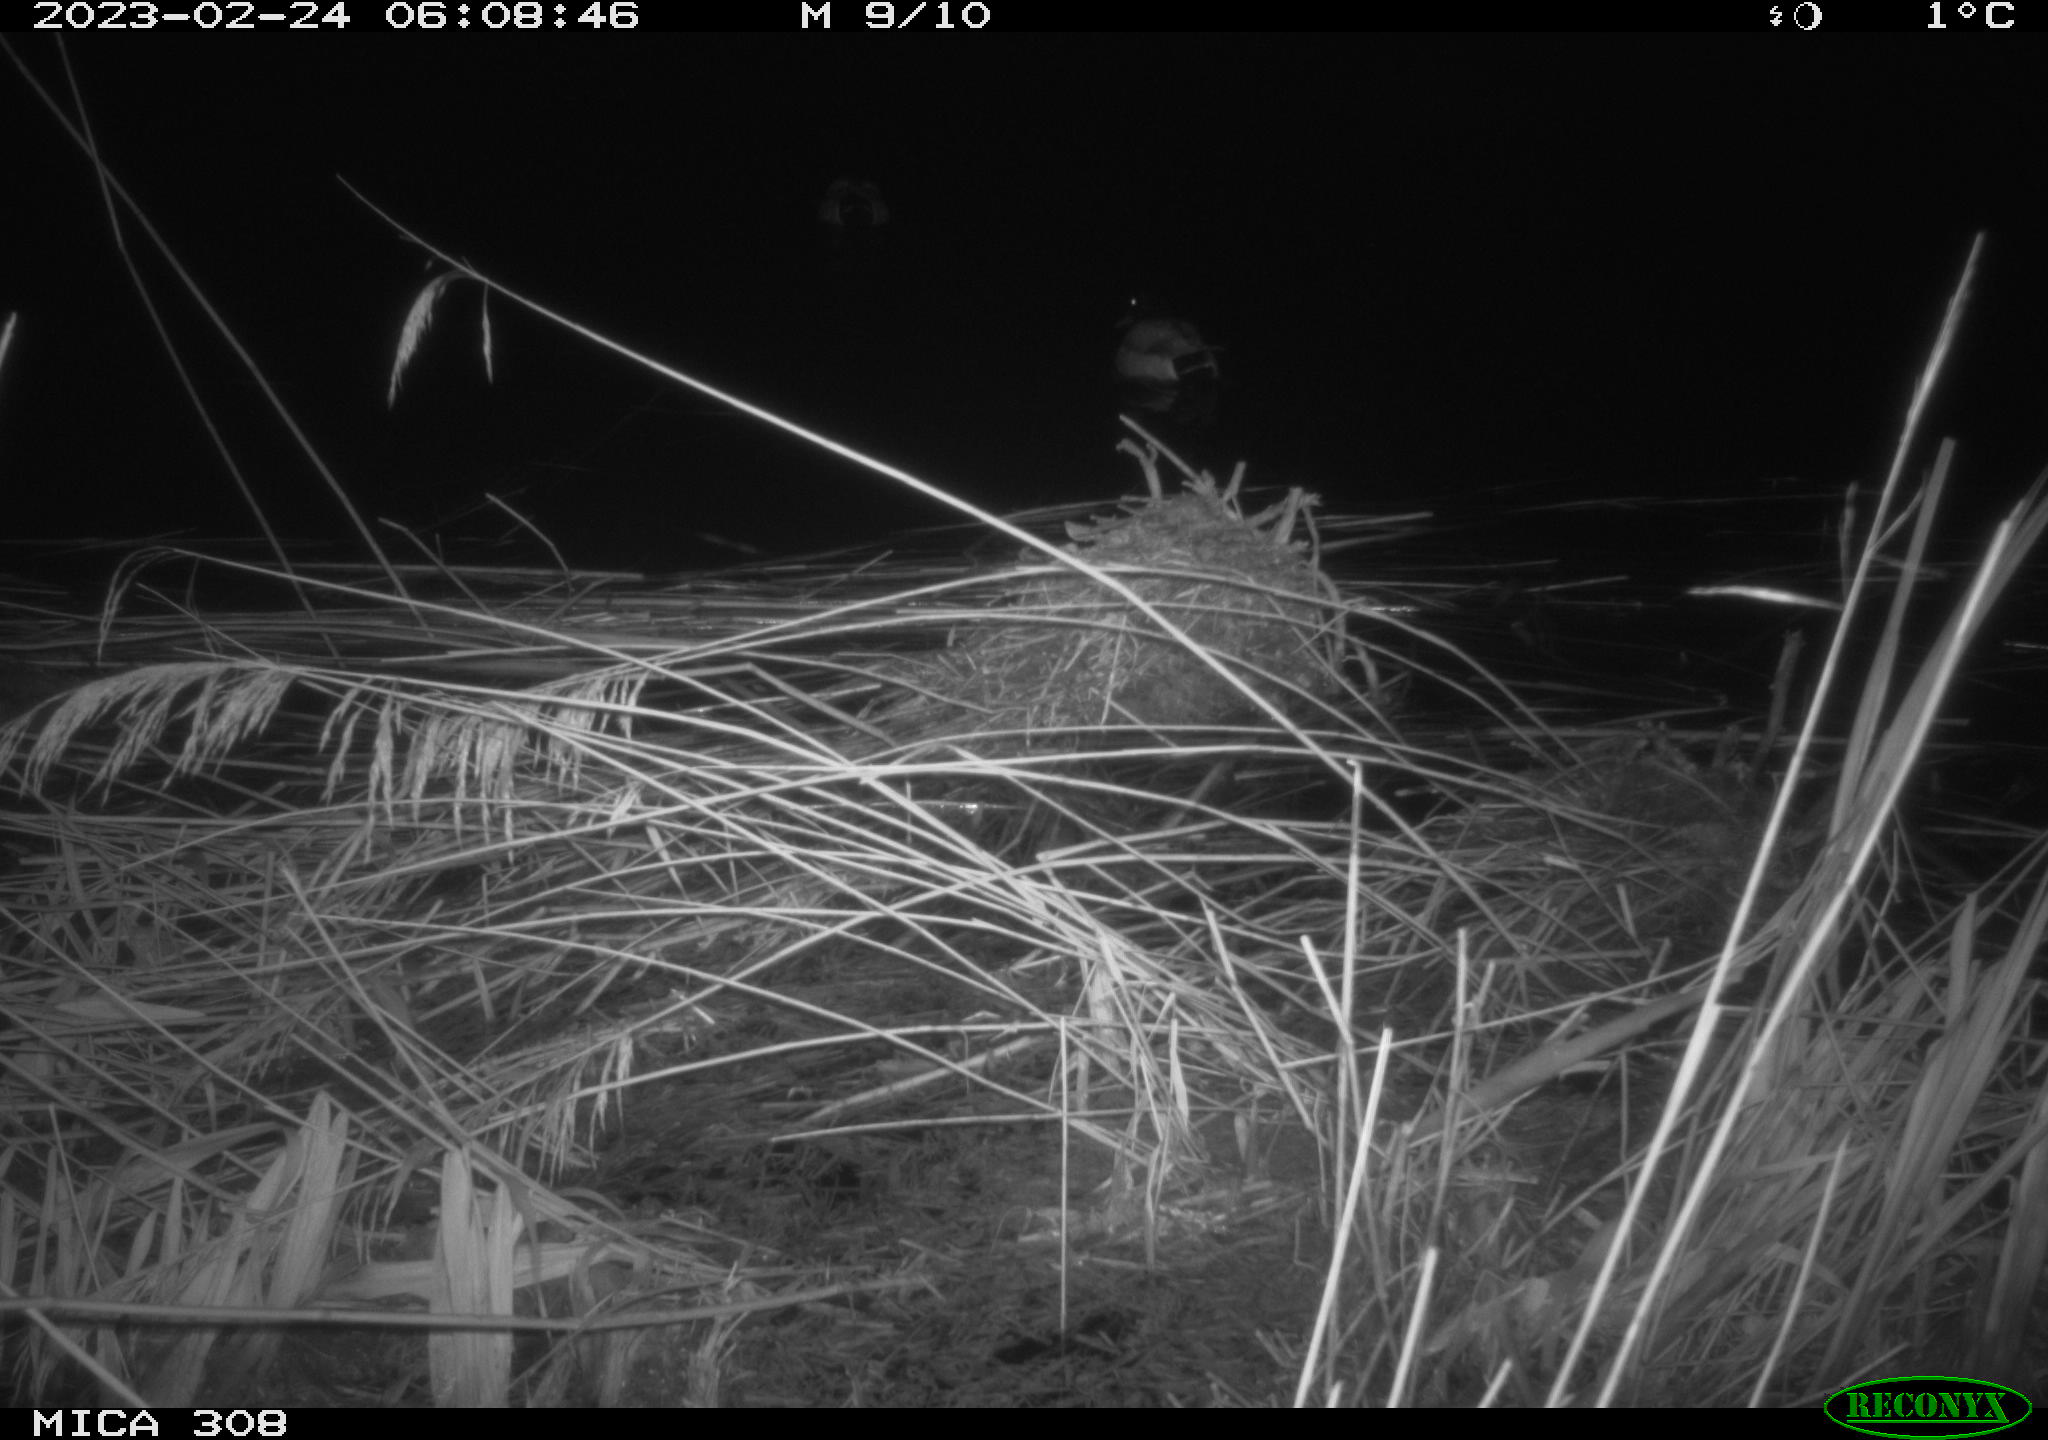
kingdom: Animalia
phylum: Chordata
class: Aves
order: Anseriformes
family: Anatidae
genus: Anas
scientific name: Anas
